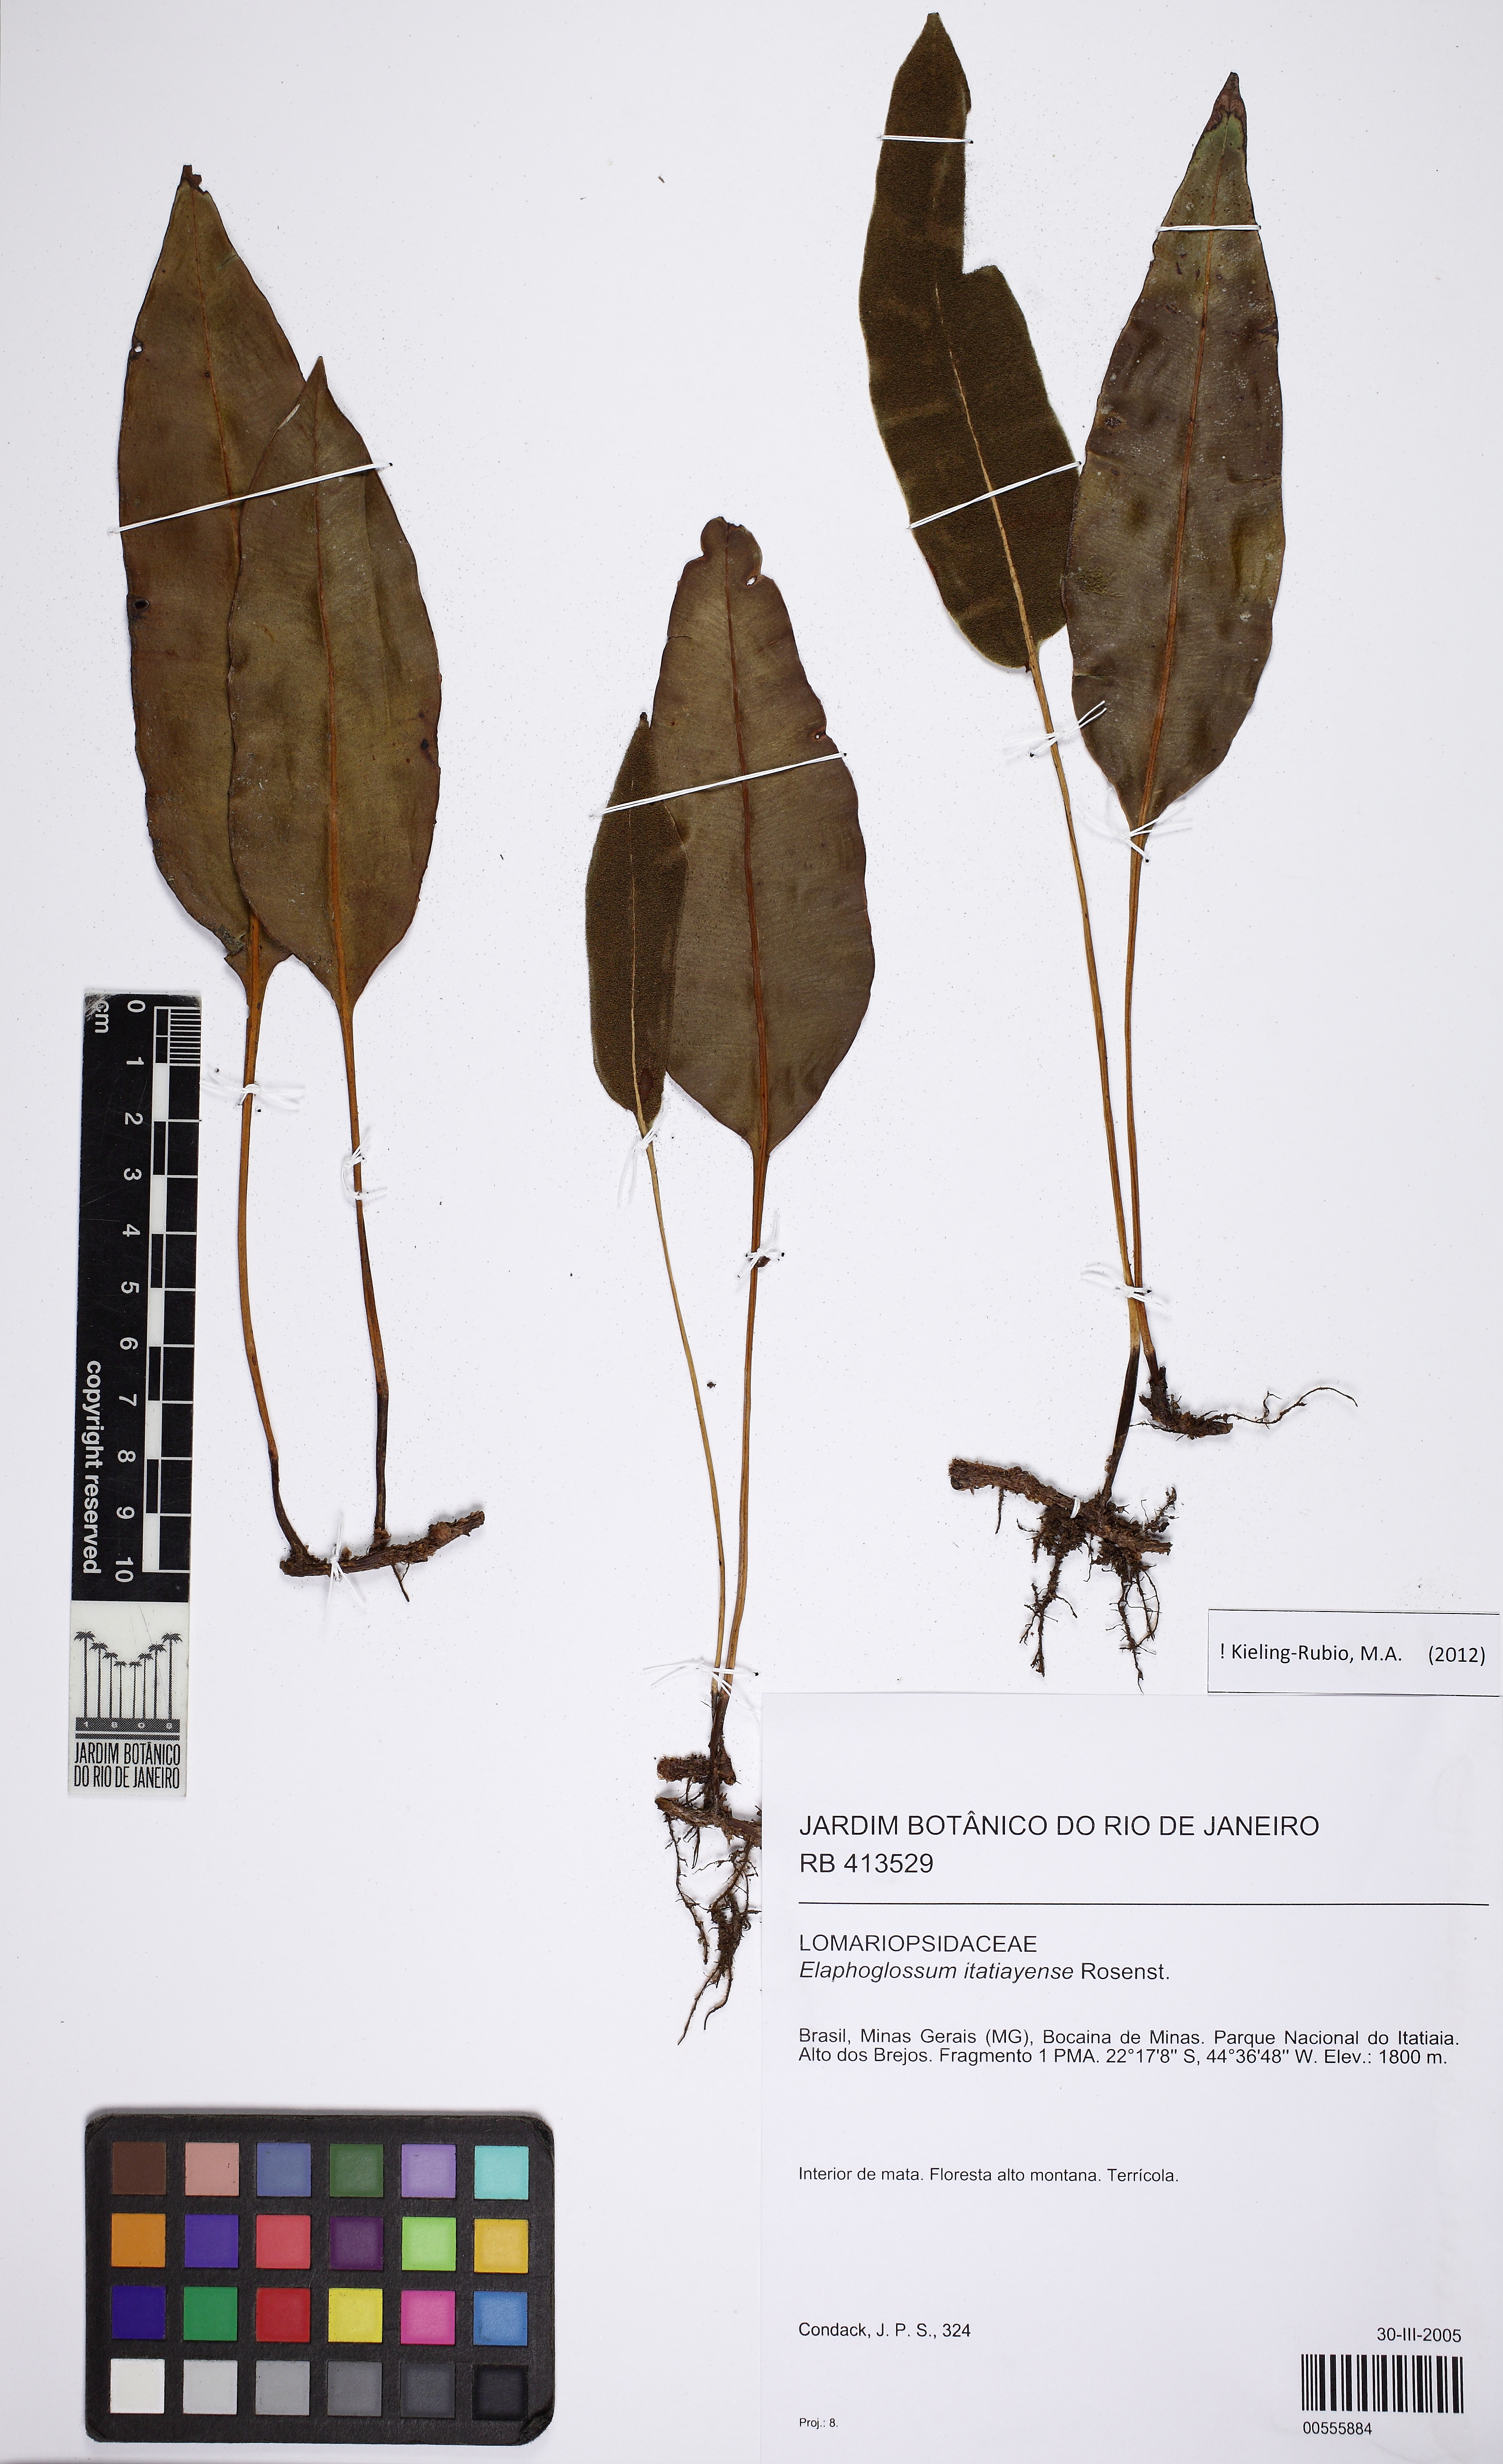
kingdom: Plantae
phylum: Tracheophyta
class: Polypodiopsida
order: Polypodiales
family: Dryopteridaceae
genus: Elaphoglossum
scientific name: Elaphoglossum itatiayense
